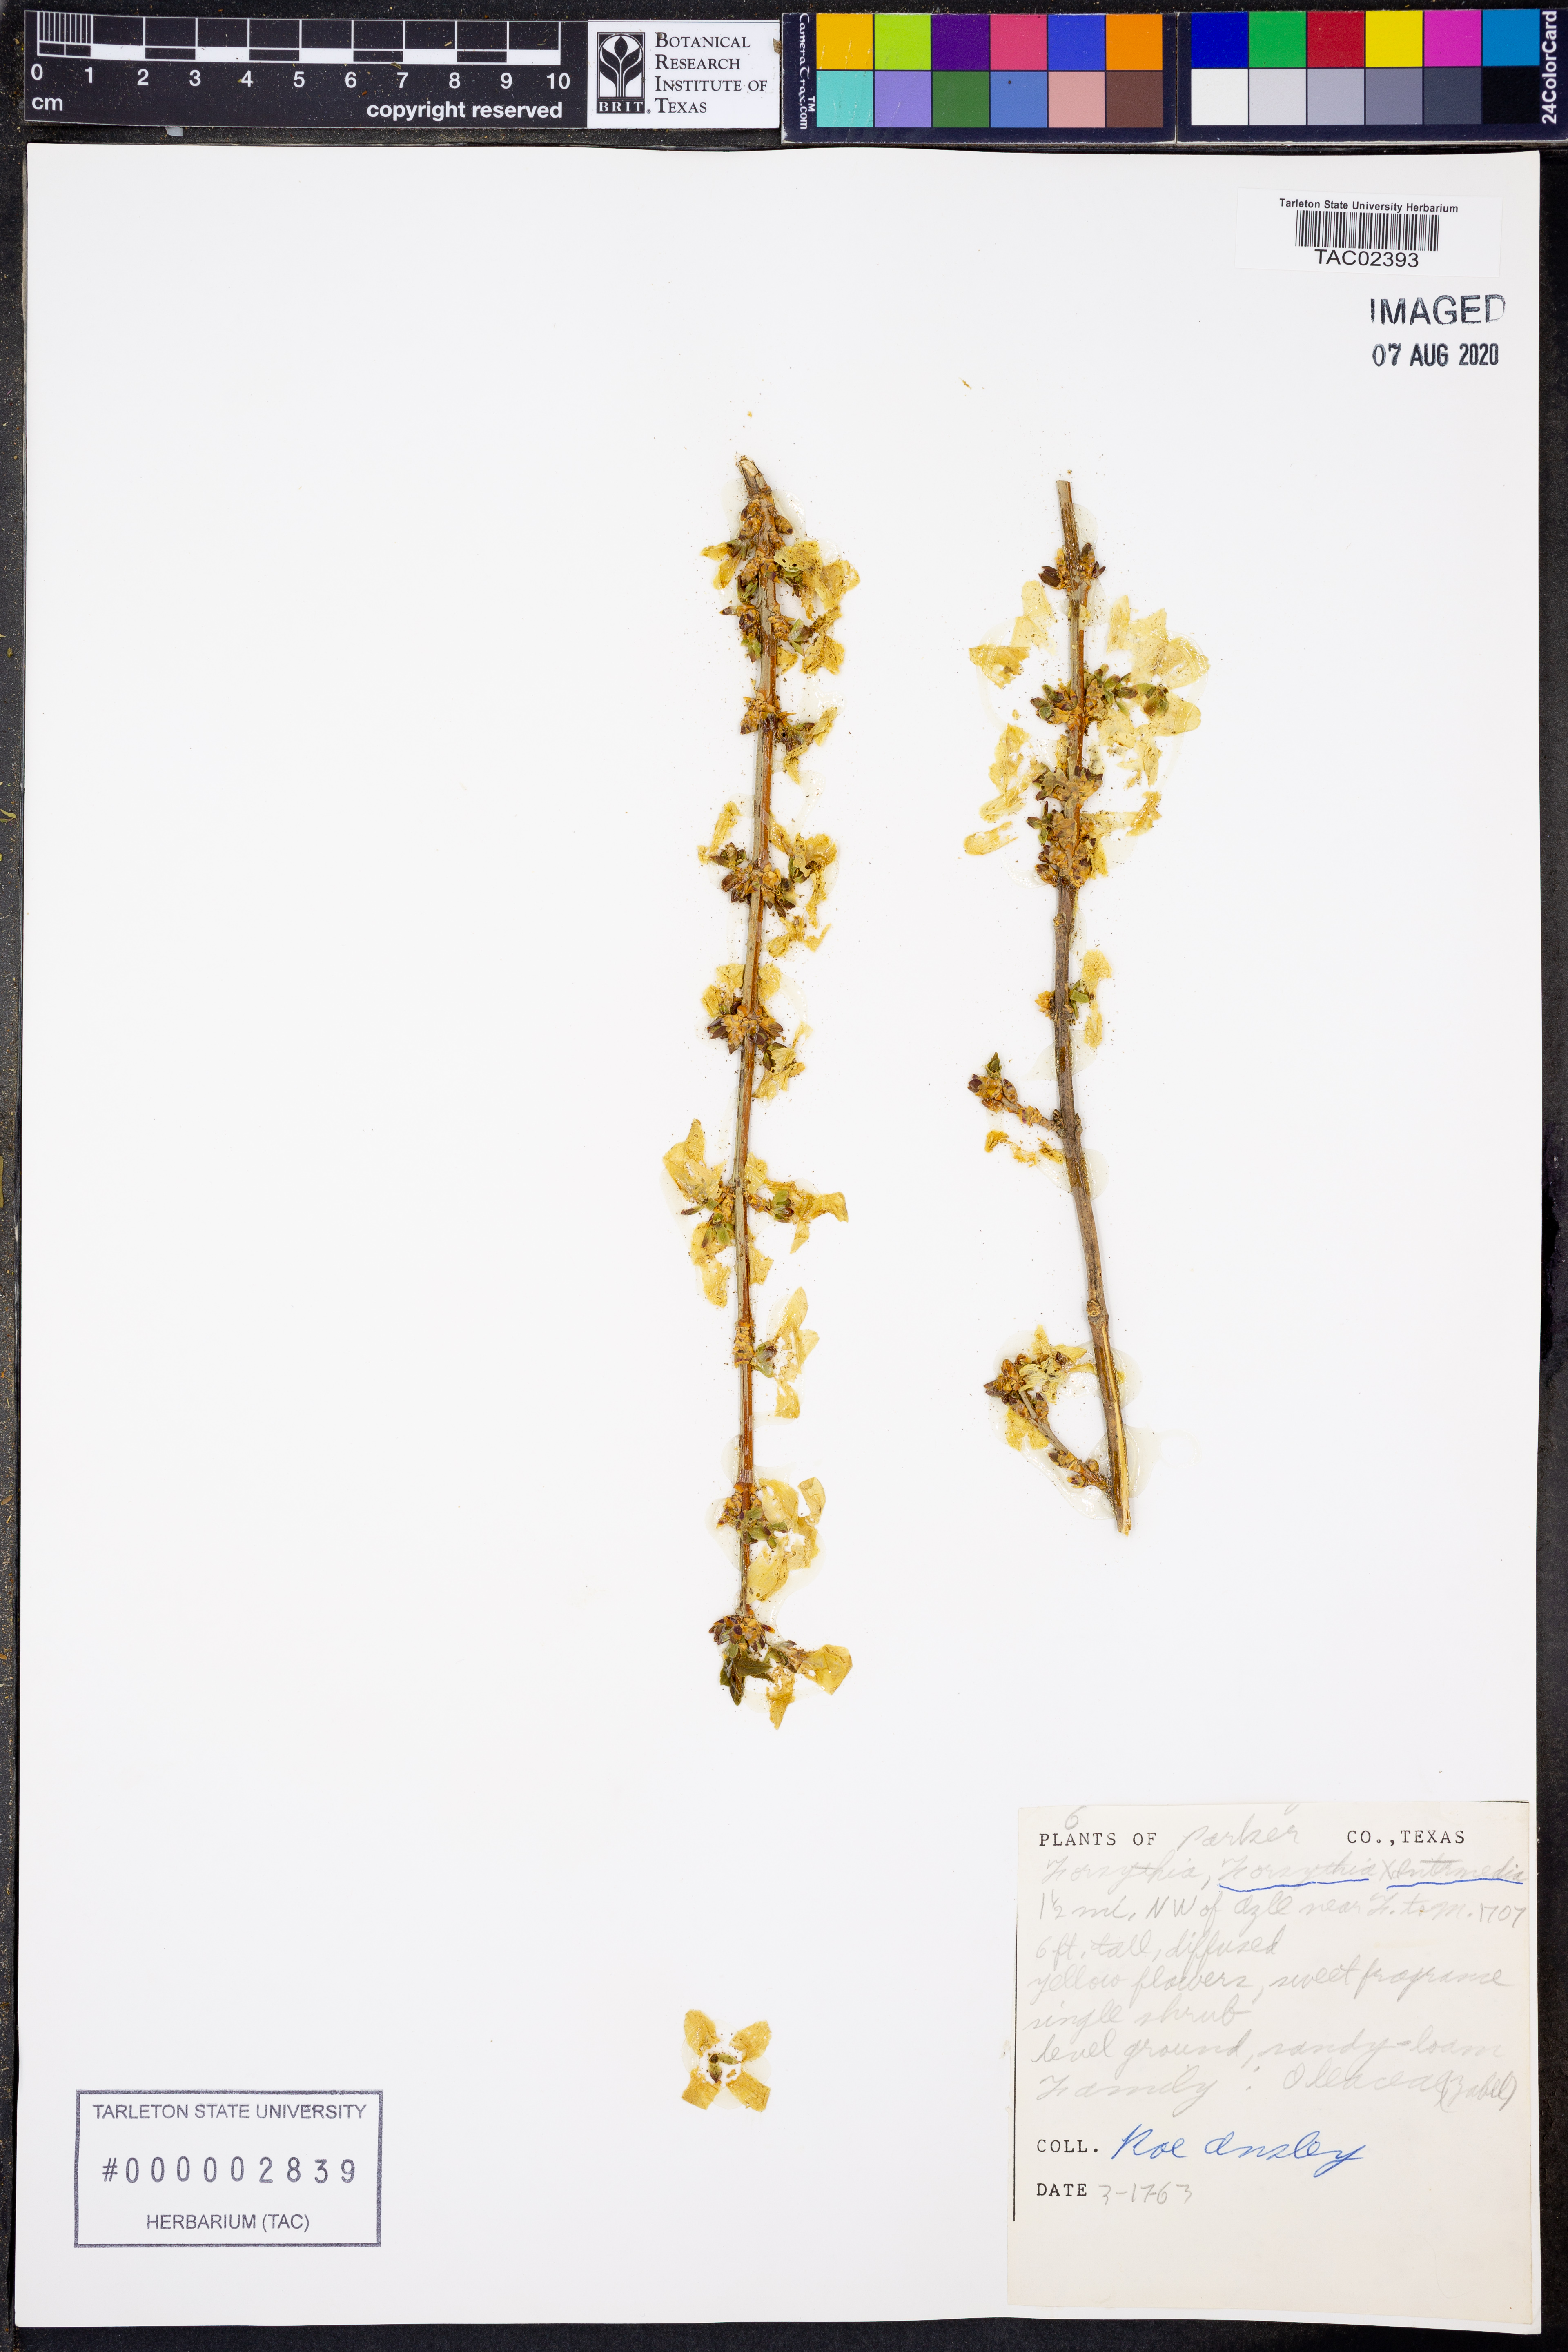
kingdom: Plantae
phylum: Tracheophyta
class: Magnoliopsida
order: Lamiales
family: Oleaceae
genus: Forsythia
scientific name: Forsythia
